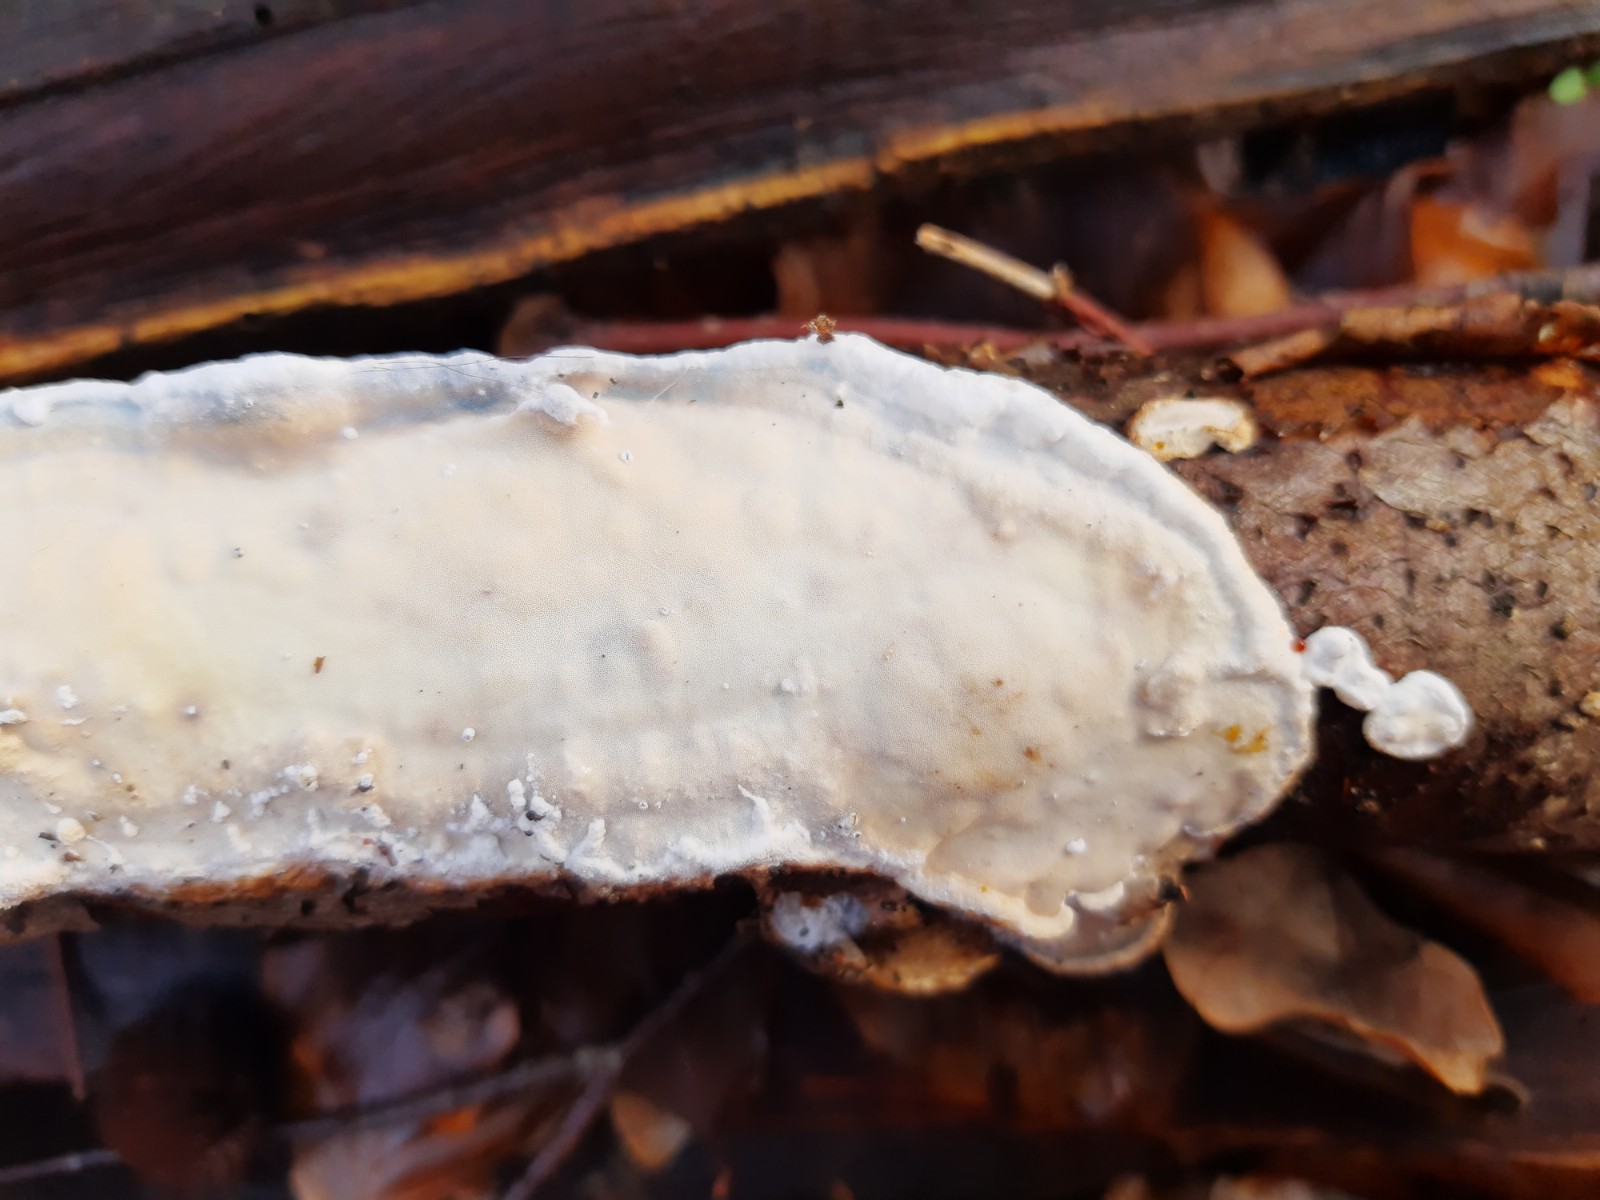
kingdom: Fungi
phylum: Basidiomycota
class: Agaricomycetes
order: Polyporales
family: Irpicaceae
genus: Byssomerulius
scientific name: Byssomerulius corium
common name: læder-åresvamp
